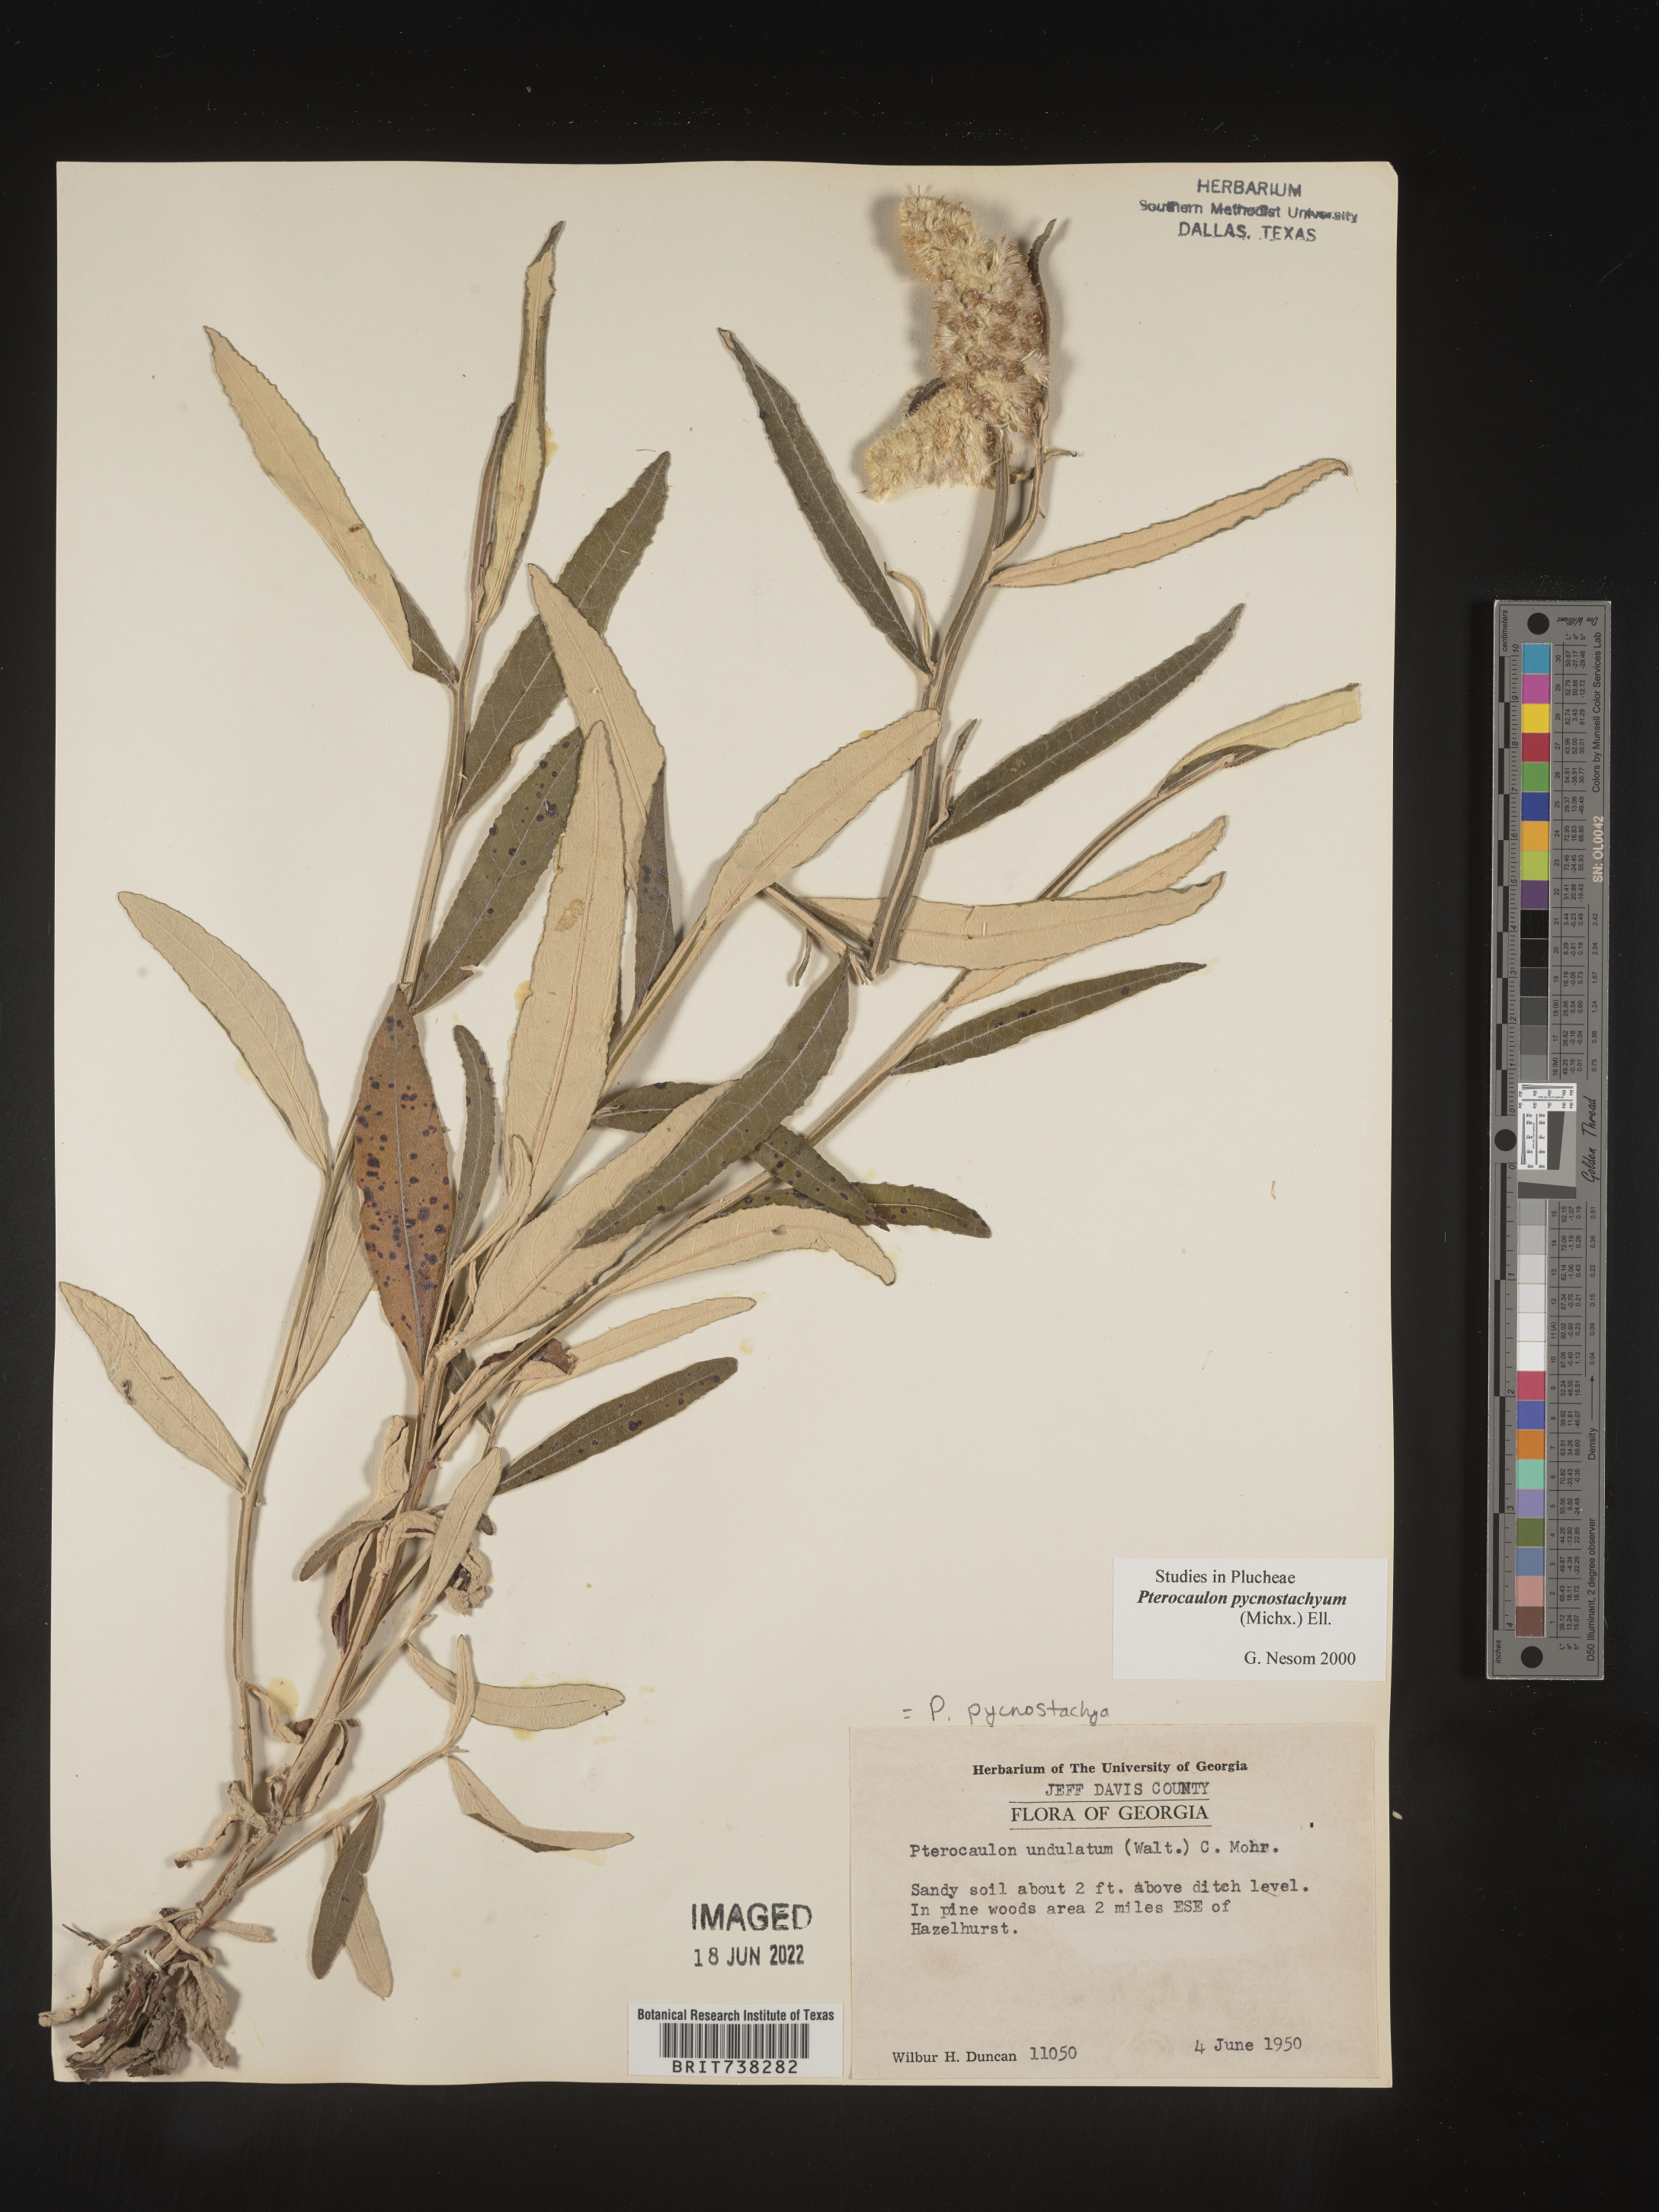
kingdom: Plantae
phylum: Tracheophyta
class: Magnoliopsida
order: Asterales
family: Asteraceae
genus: Pterocaulon
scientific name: Pterocaulon pycnostachyum
